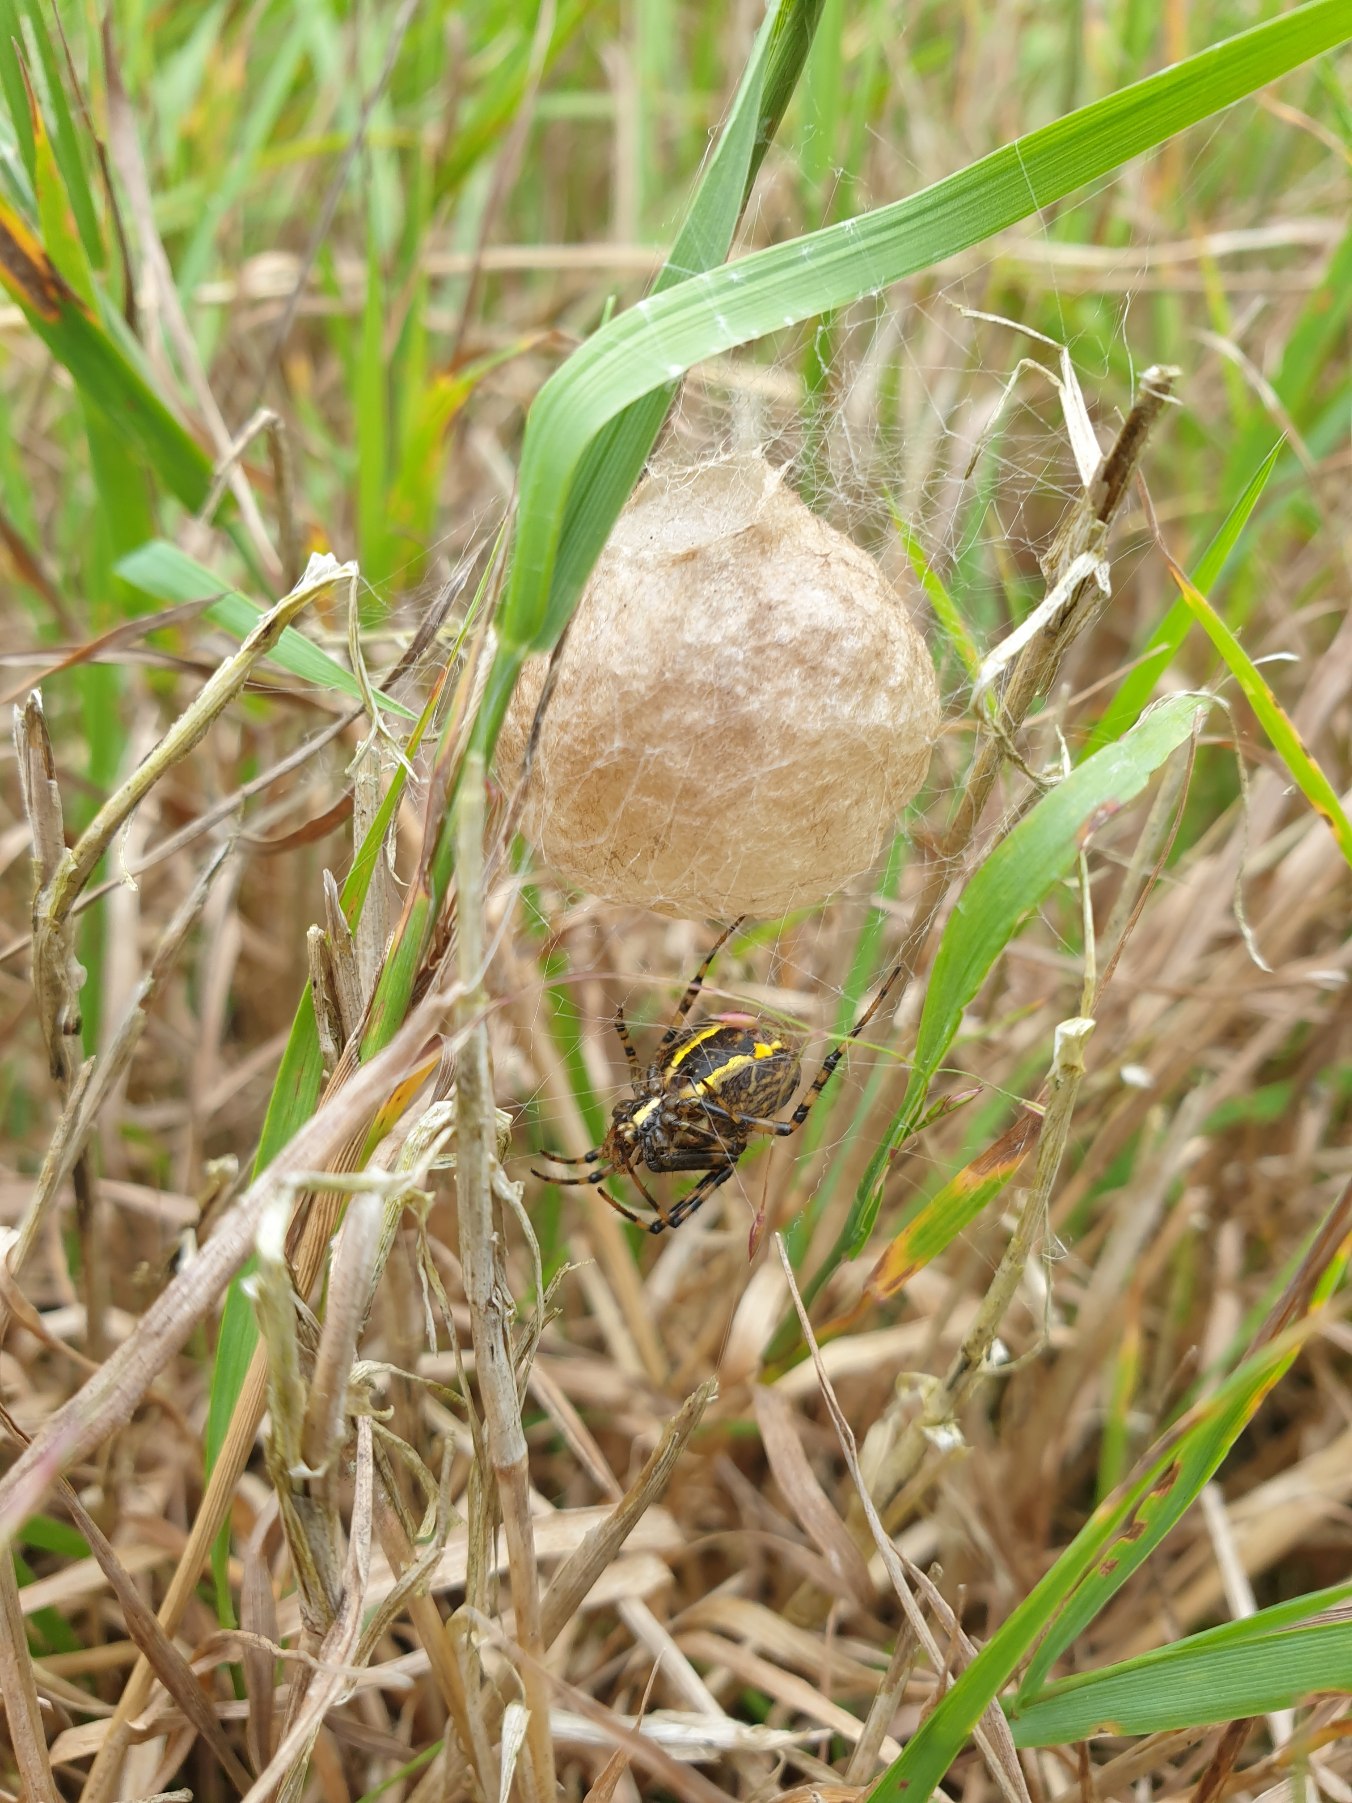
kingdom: Animalia
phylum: Arthropoda
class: Arachnida
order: Araneae
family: Araneidae
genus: Argiope
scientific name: Argiope bruennichi
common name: Hvepseedderkop
